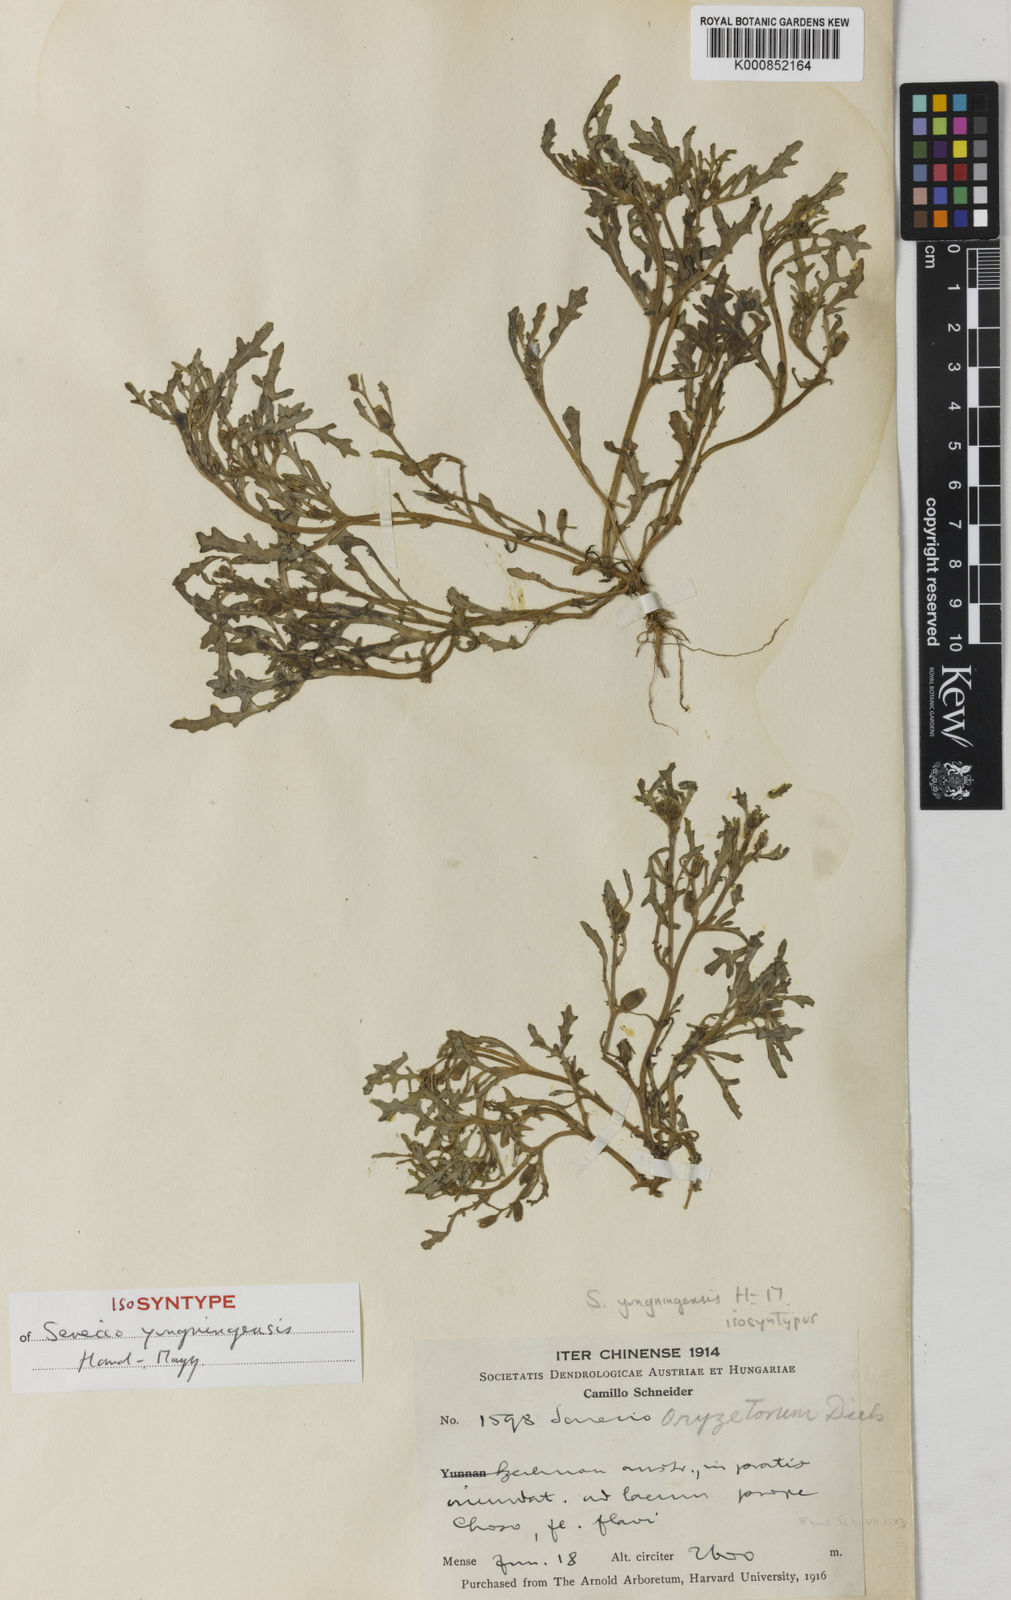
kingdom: Plantae
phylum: Tracheophyta
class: Magnoliopsida
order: Asterales
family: Asteraceae
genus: Senecio
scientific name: Senecio yungningensis
